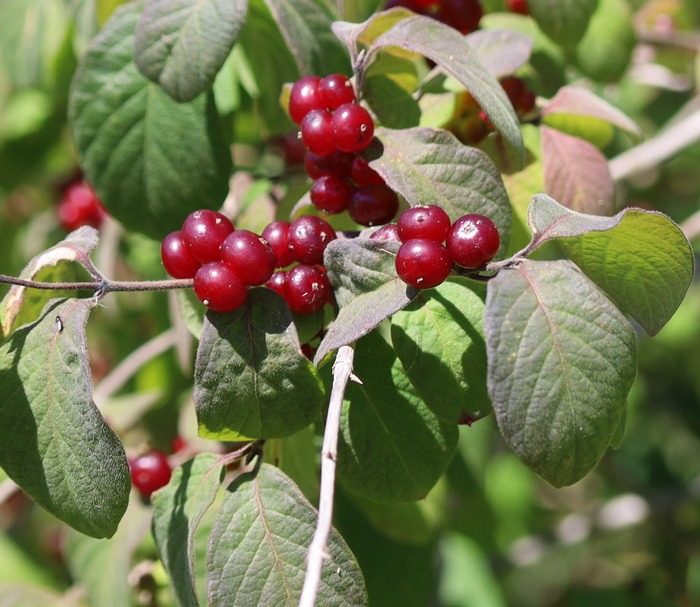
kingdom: Plantae
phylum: Tracheophyta
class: Magnoliopsida
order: Dipsacales
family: Caprifoliaceae
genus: Lonicera
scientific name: Lonicera xylosteum
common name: Dunet gedeblad
